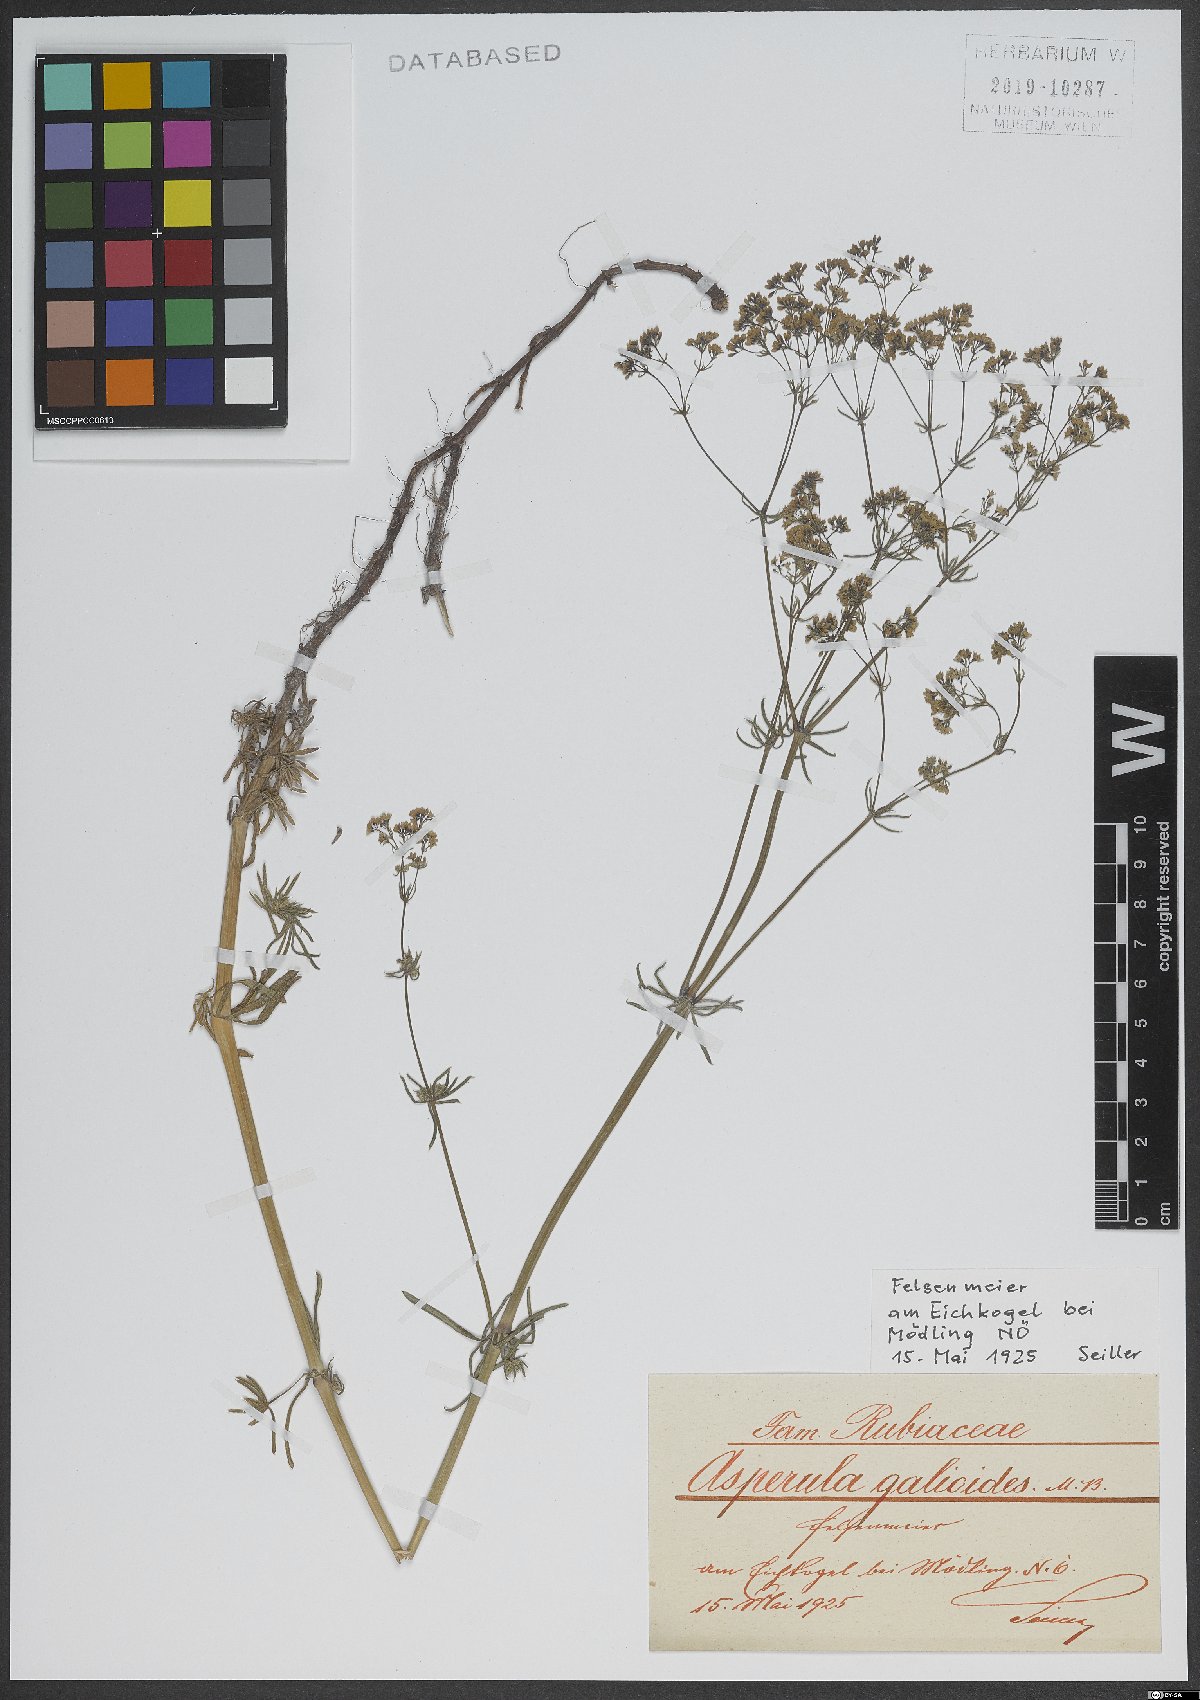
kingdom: Plantae
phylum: Tracheophyta
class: Magnoliopsida
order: Gentianales
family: Rubiaceae
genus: Galium
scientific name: Galium glaucum
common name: Waxy bedstraw
